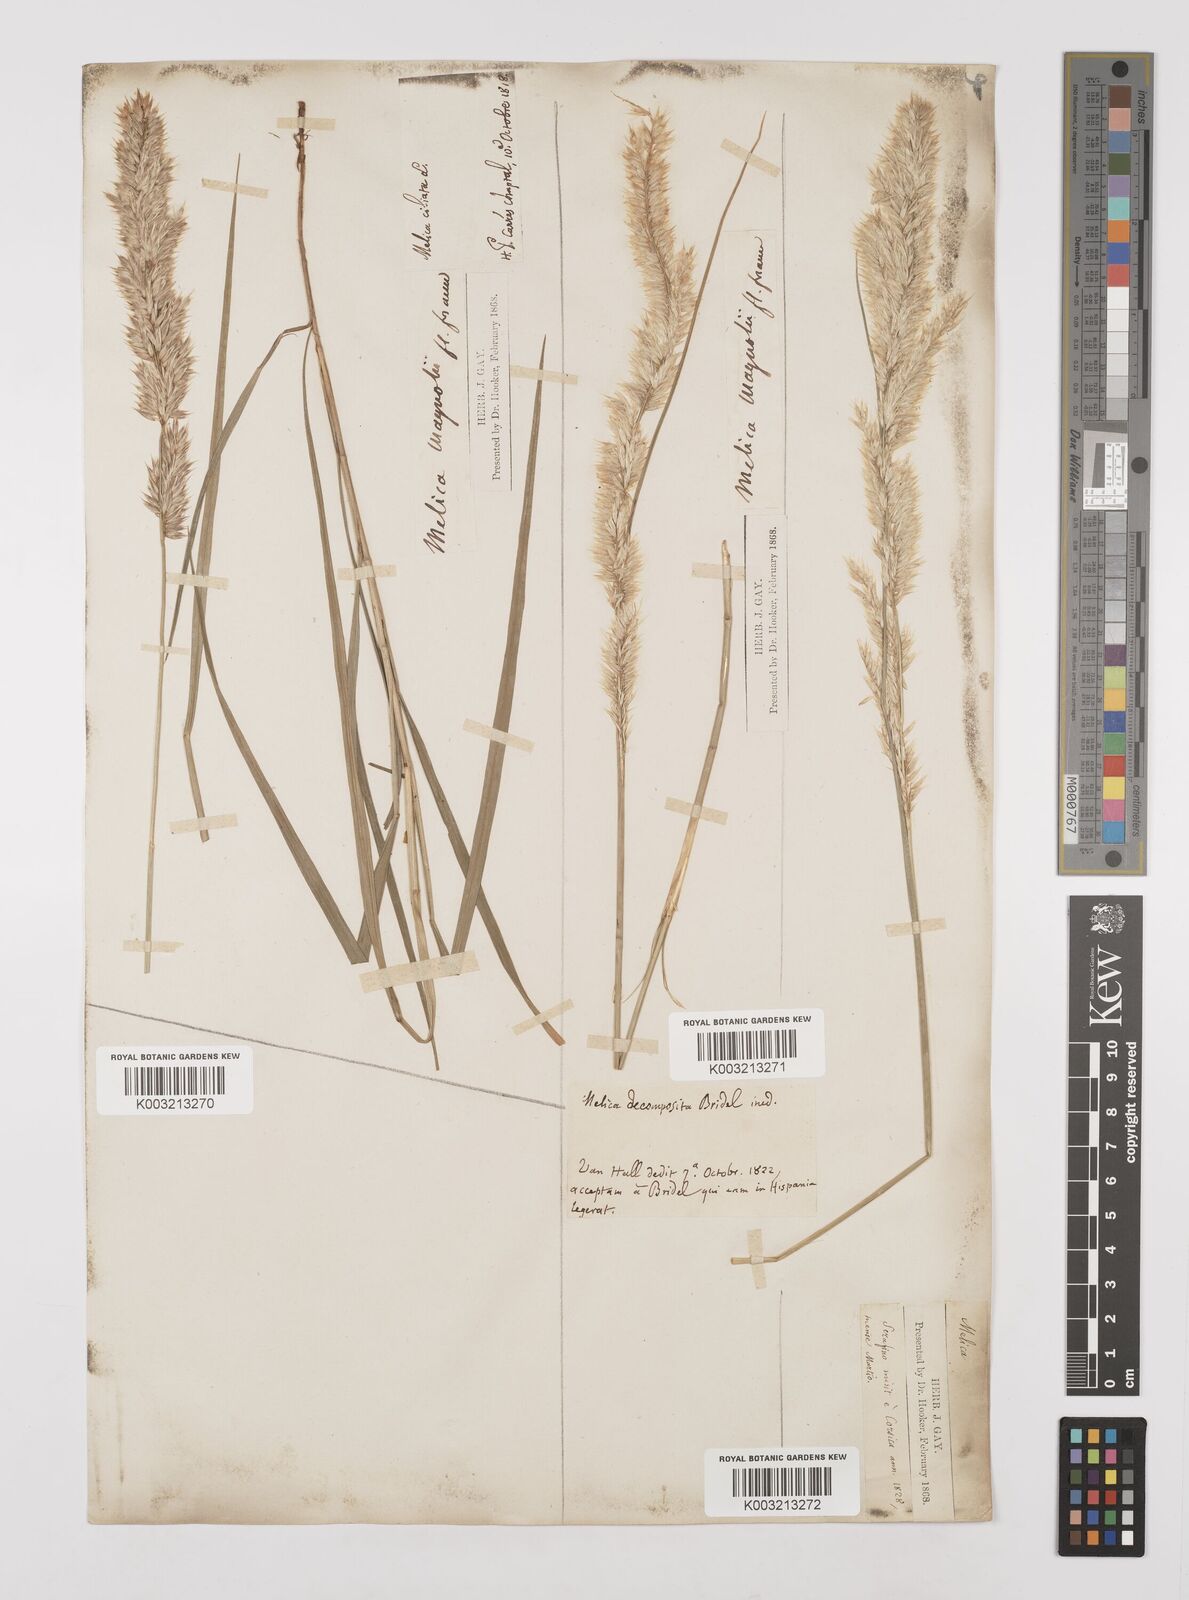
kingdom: Plantae
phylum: Tracheophyta
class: Liliopsida
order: Poales
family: Poaceae
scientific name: Poaceae
